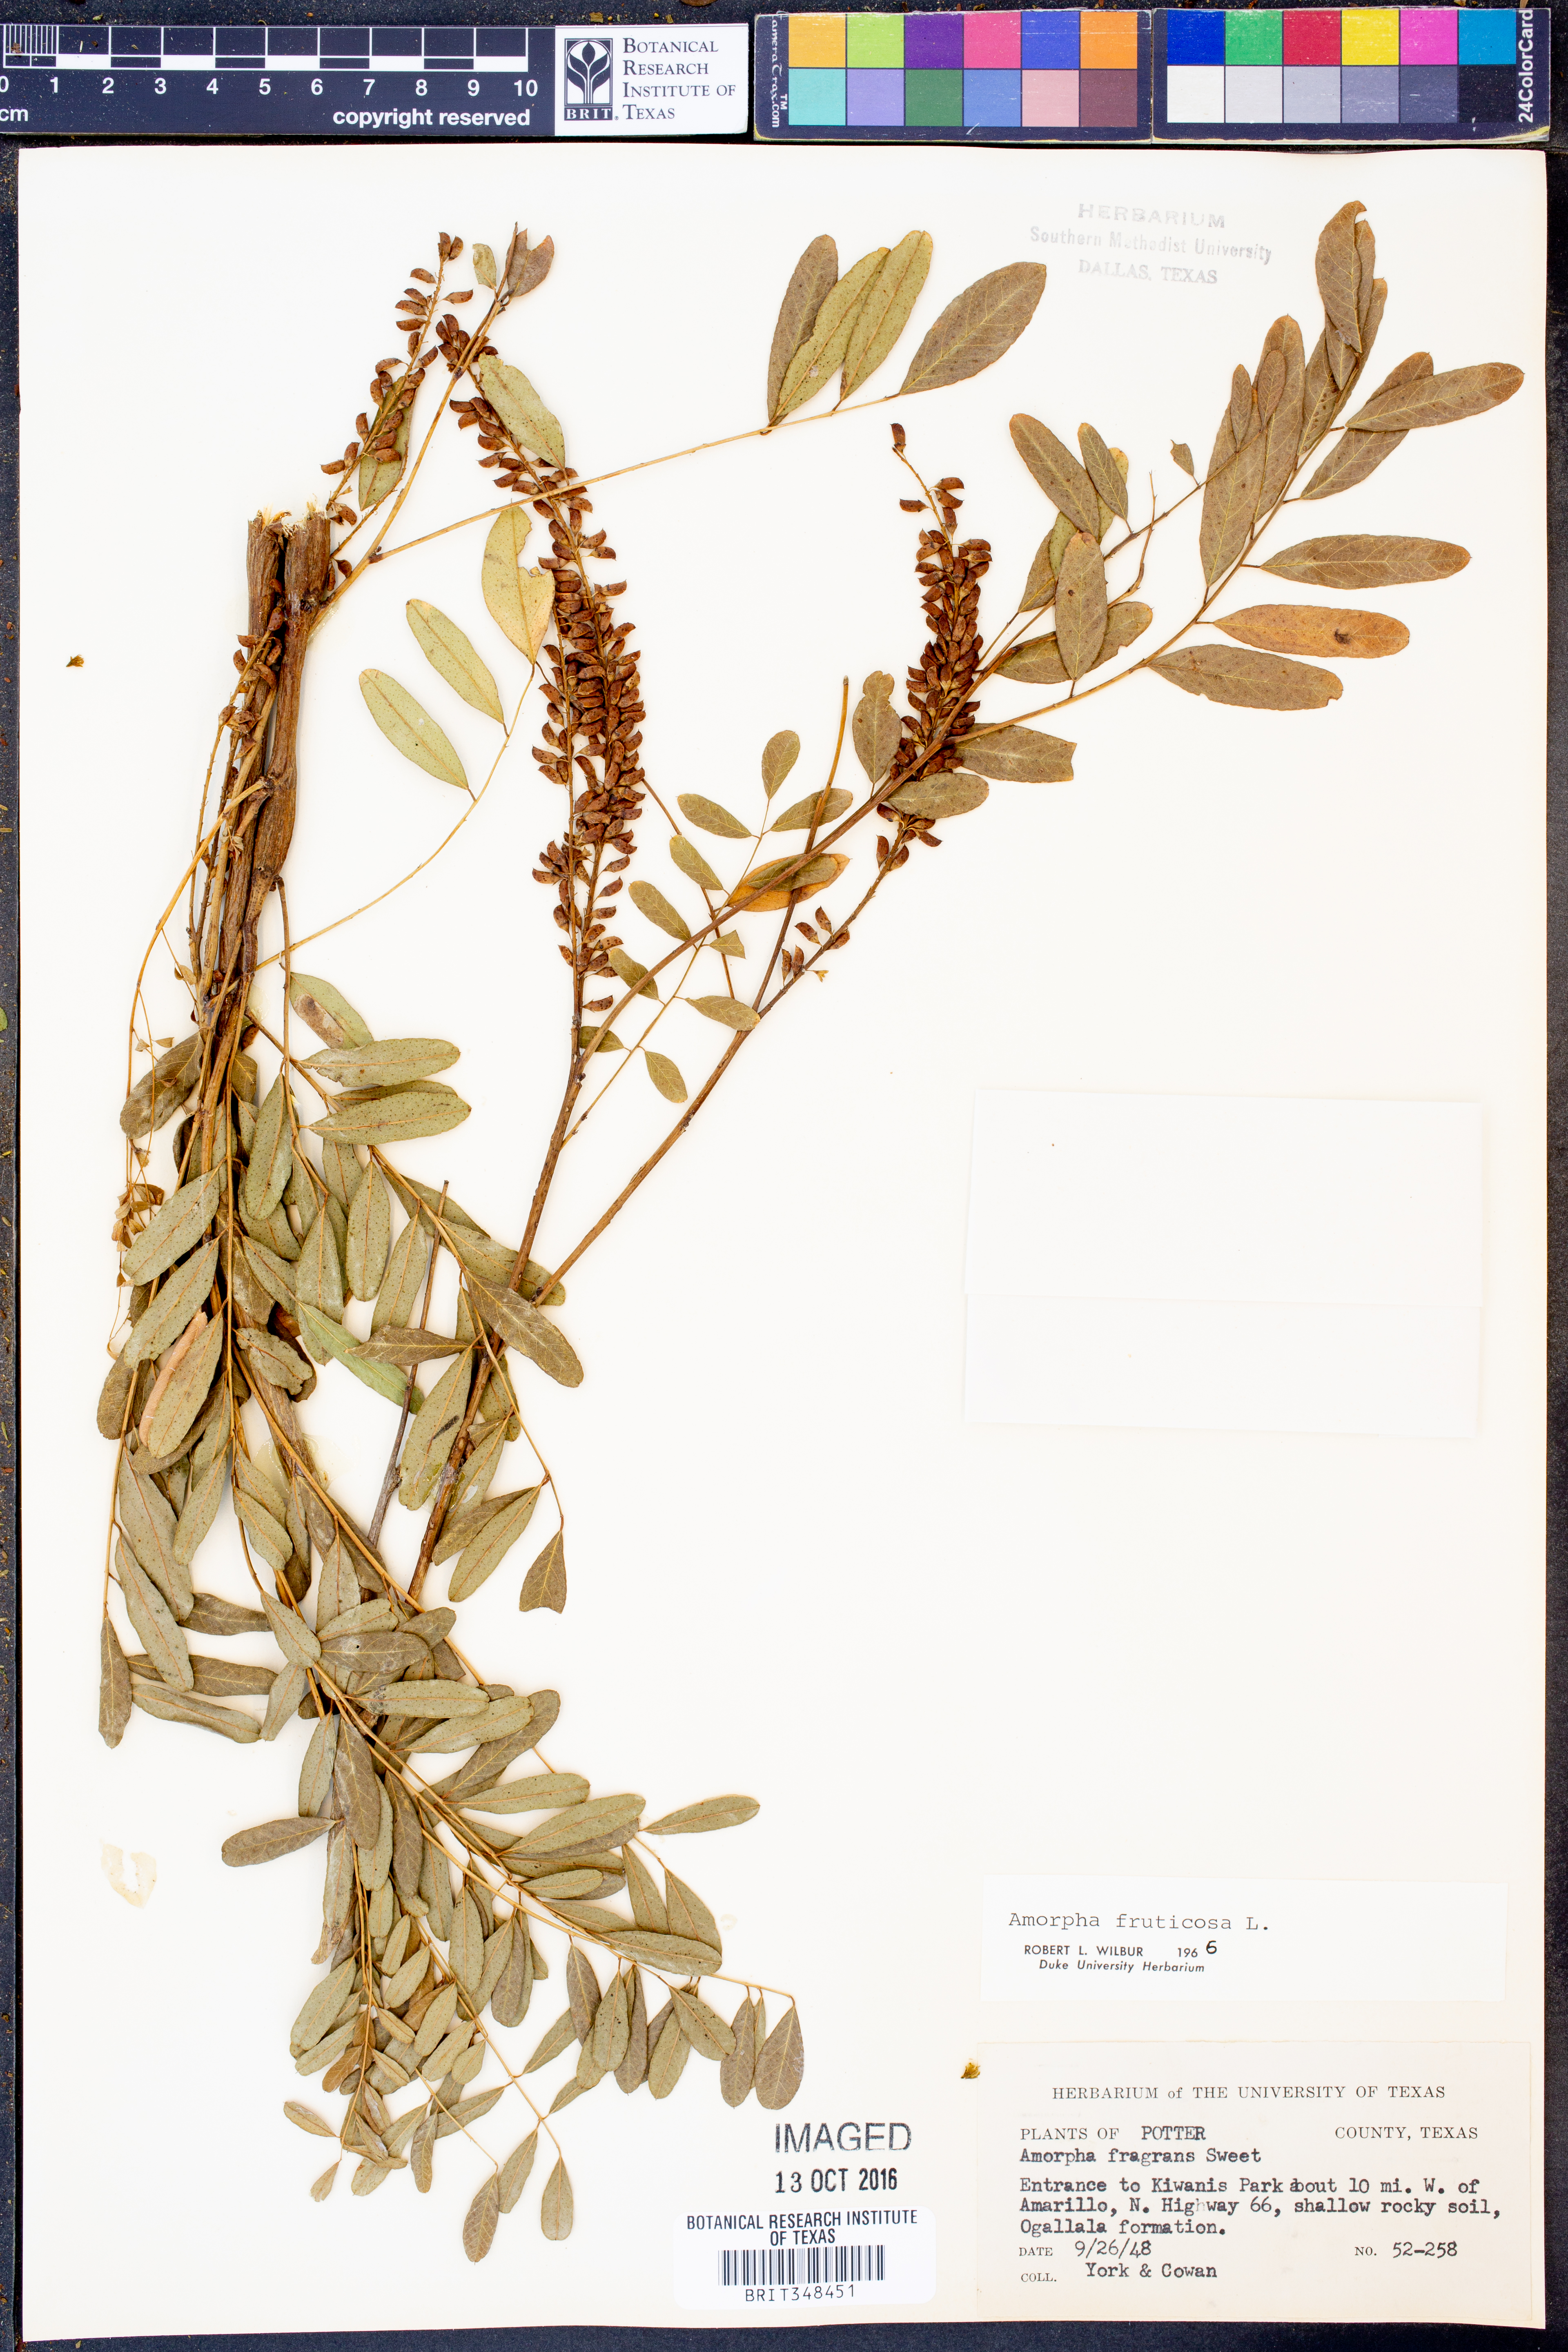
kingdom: Plantae
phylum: Tracheophyta
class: Magnoliopsida
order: Fabales
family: Fabaceae
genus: Amorpha
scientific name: Amorpha fruticosa
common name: False indigo
